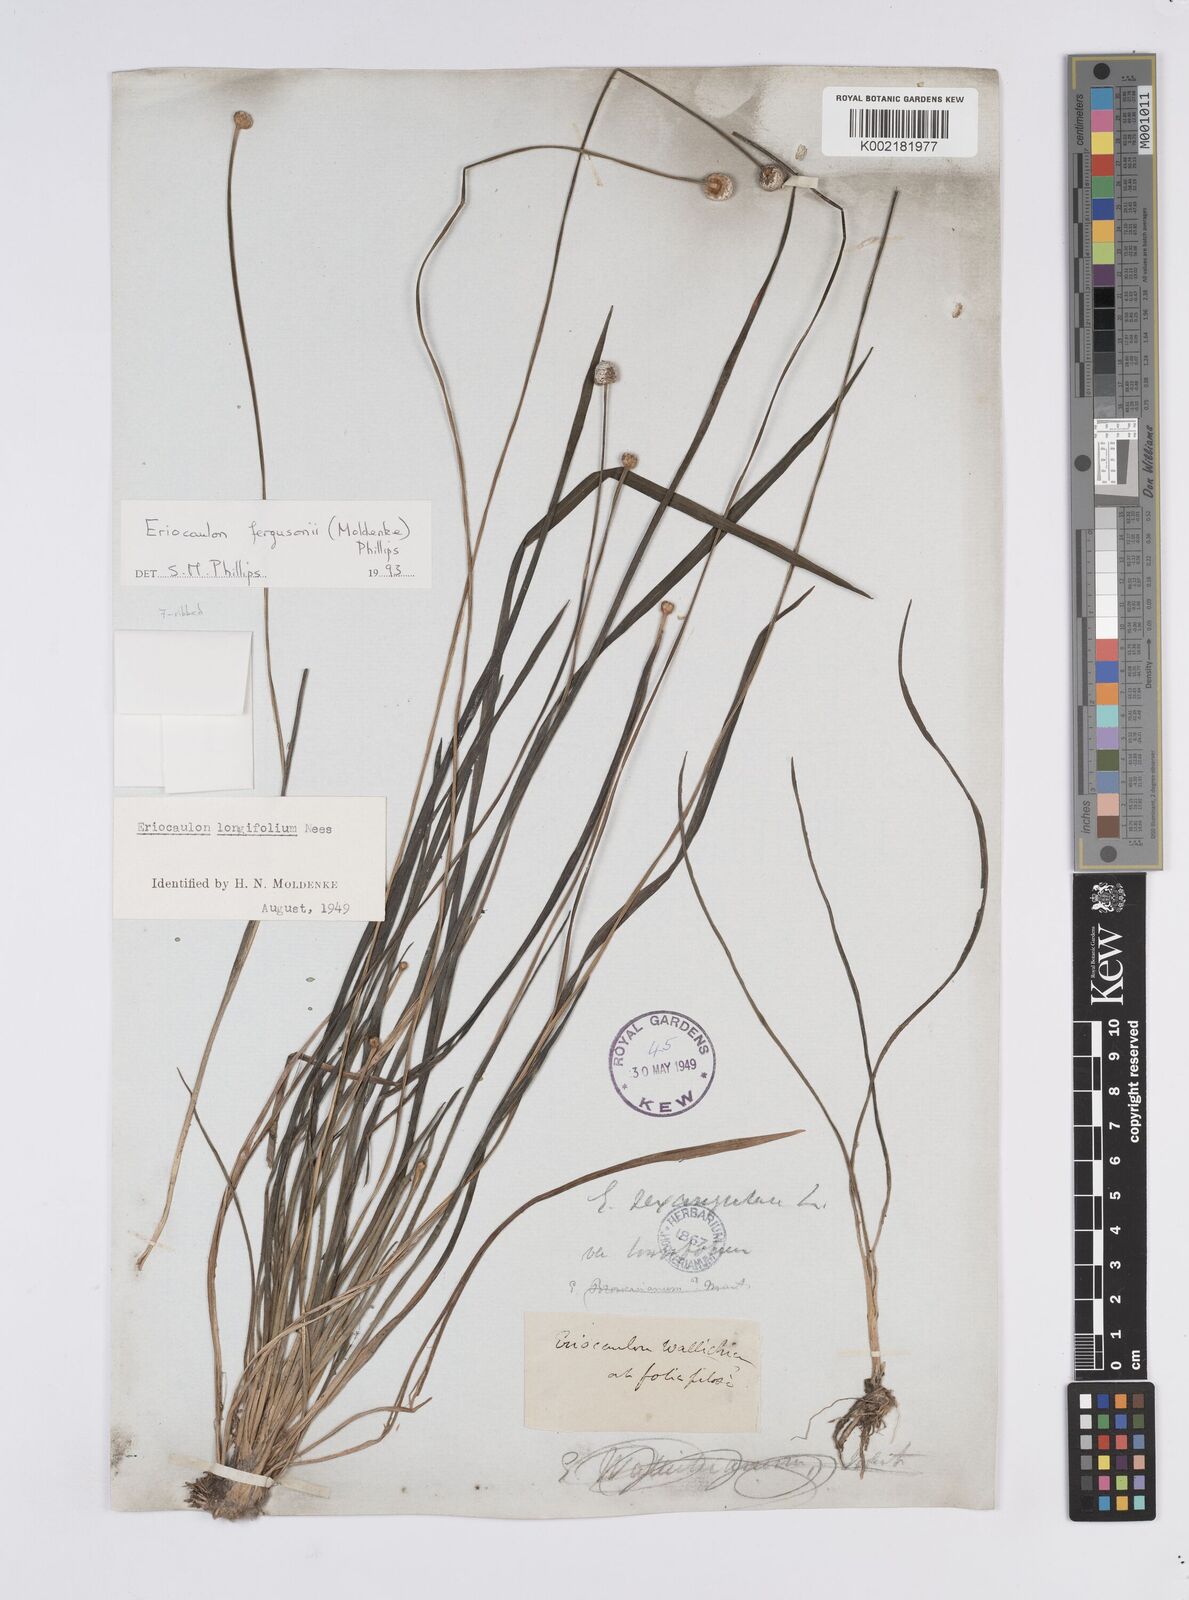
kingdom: Plantae
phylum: Tracheophyta
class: Liliopsida
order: Poales
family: Eriocaulaceae
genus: Eriocaulon
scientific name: Eriocaulon sexangulare
